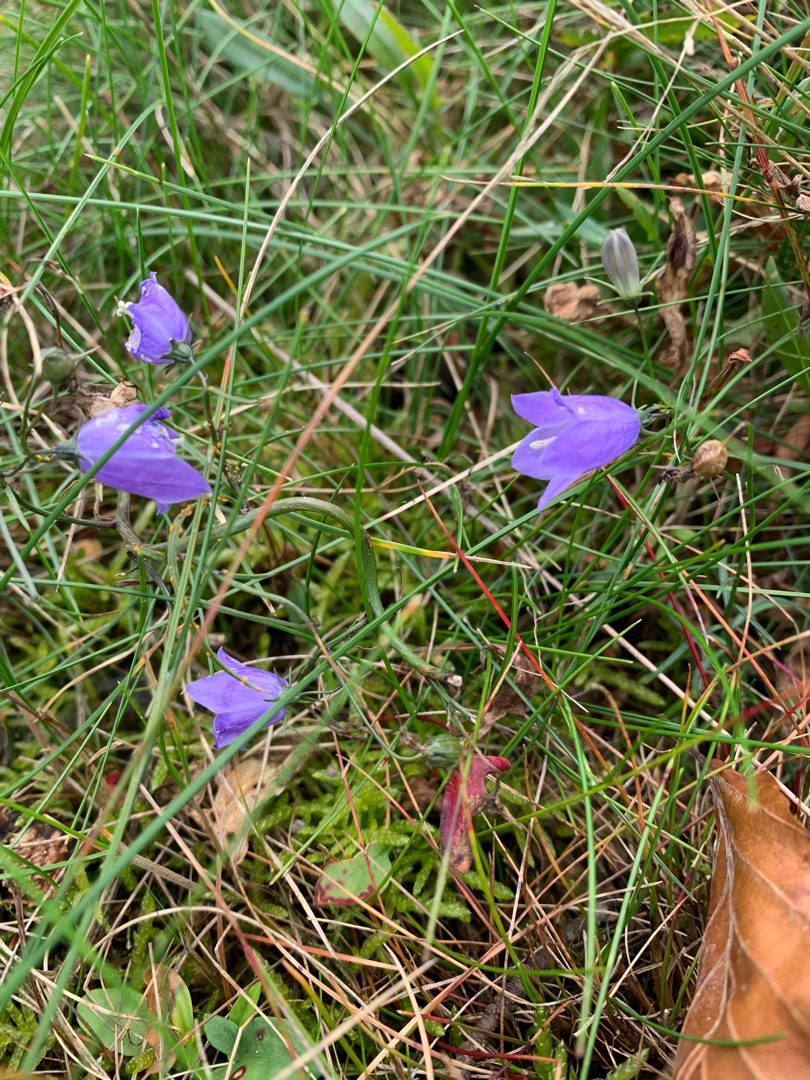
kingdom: Plantae
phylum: Tracheophyta
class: Magnoliopsida
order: Asterales
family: Campanulaceae
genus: Campanula
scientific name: Campanula rotundifolia
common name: Liden klokke
